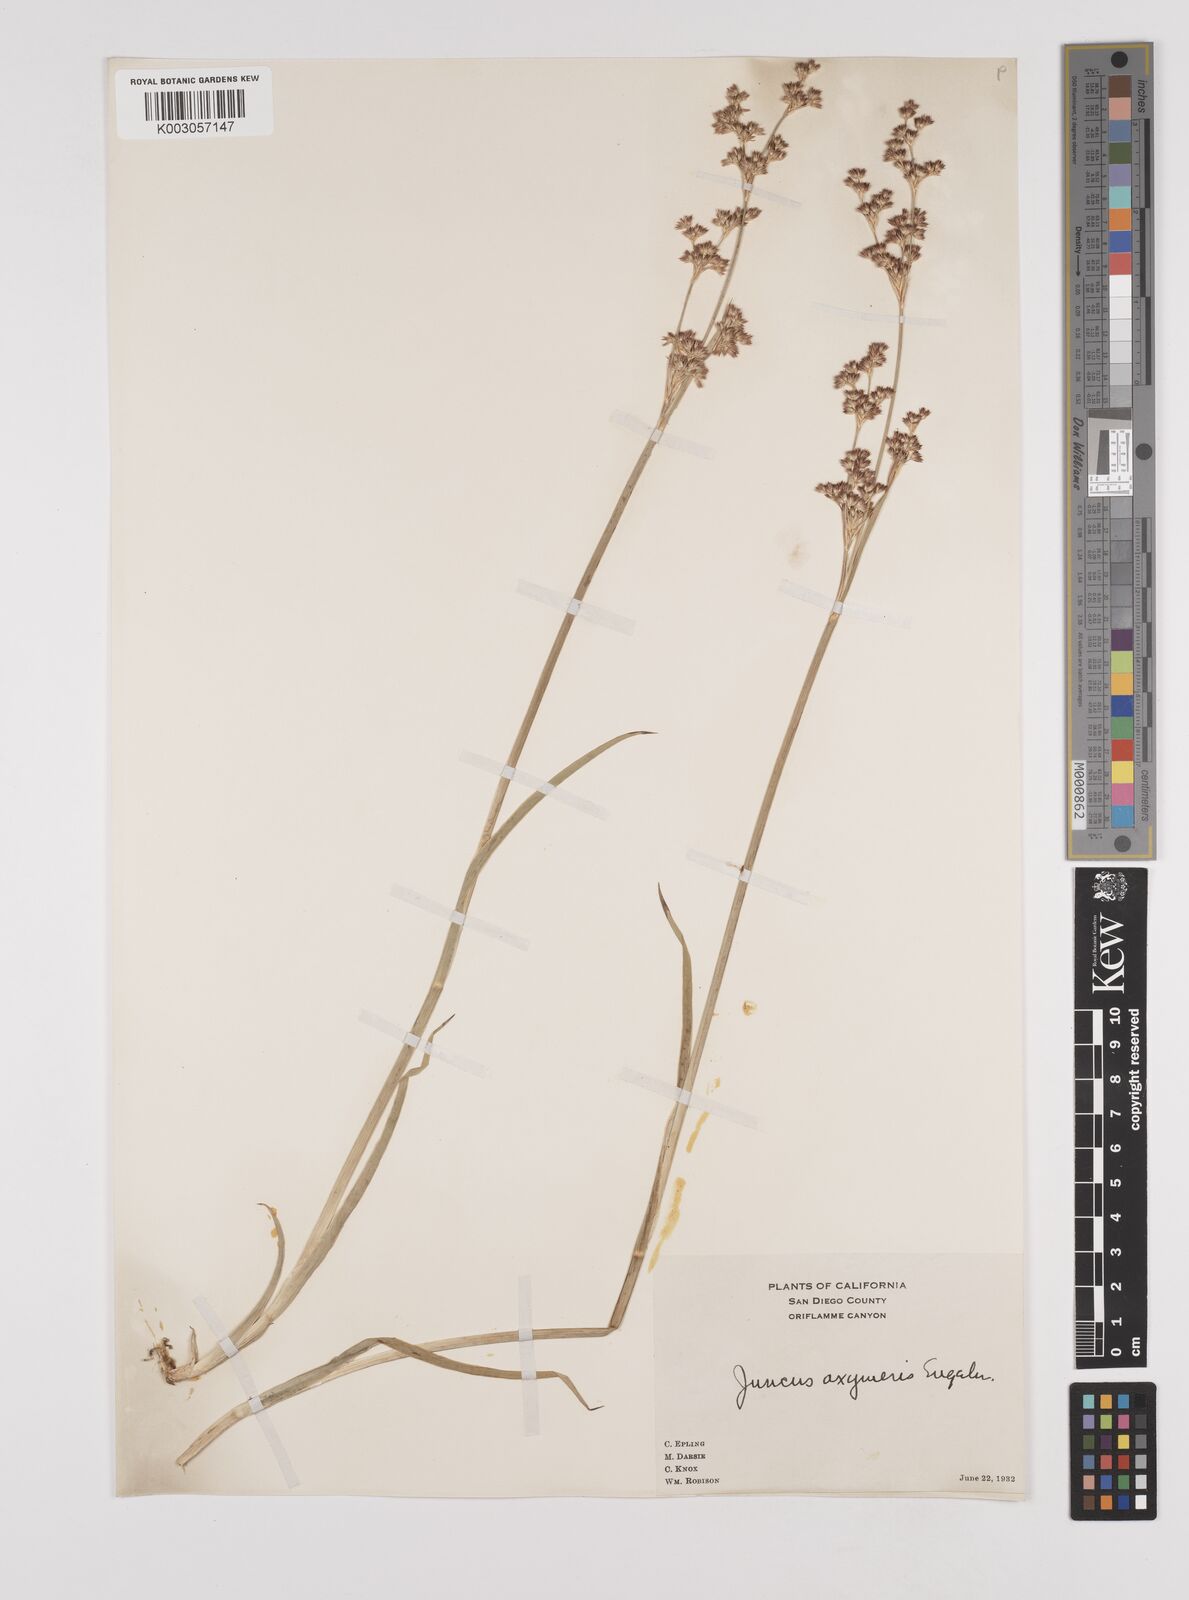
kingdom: Plantae
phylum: Tracheophyta
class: Liliopsida
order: Poales
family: Juncaceae
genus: Juncus
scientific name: Juncus oxymeris
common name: Pointed rush
